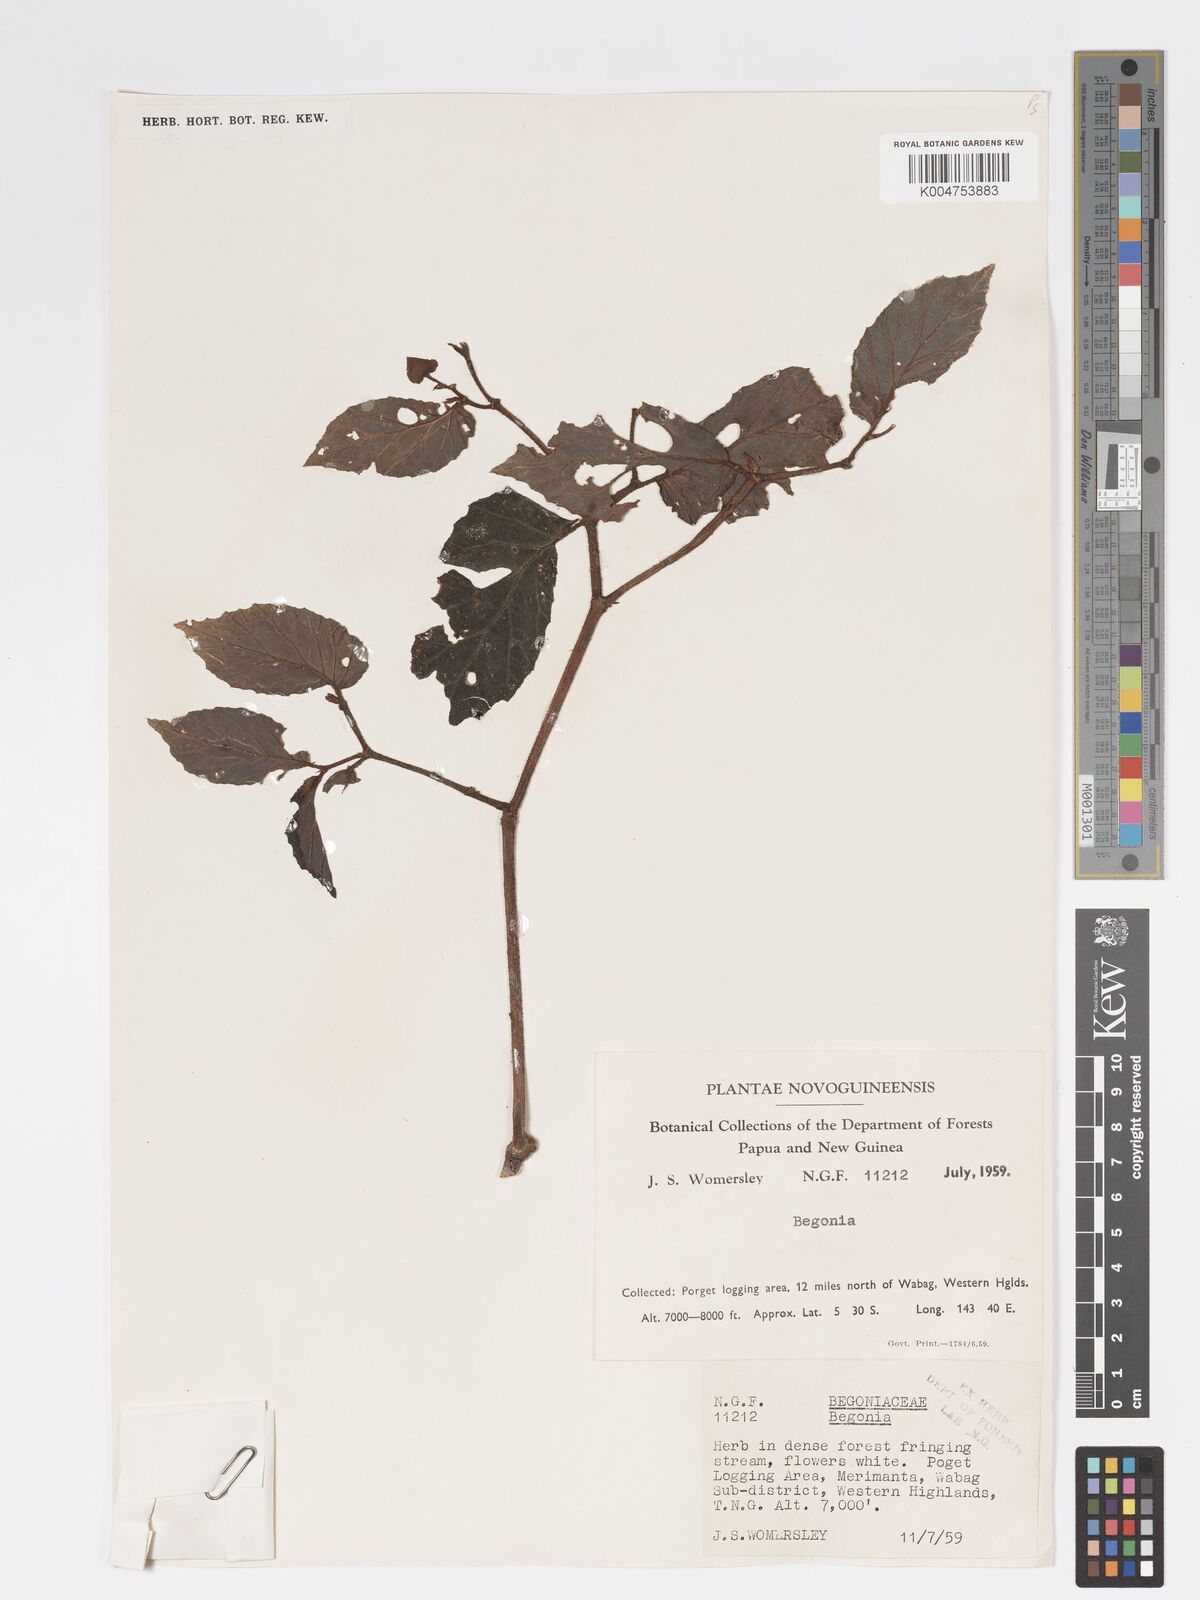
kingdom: Plantae
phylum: Tracheophyta
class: Magnoliopsida
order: Cucurbitales
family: Begoniaceae
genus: Begonia
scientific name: Begonia
